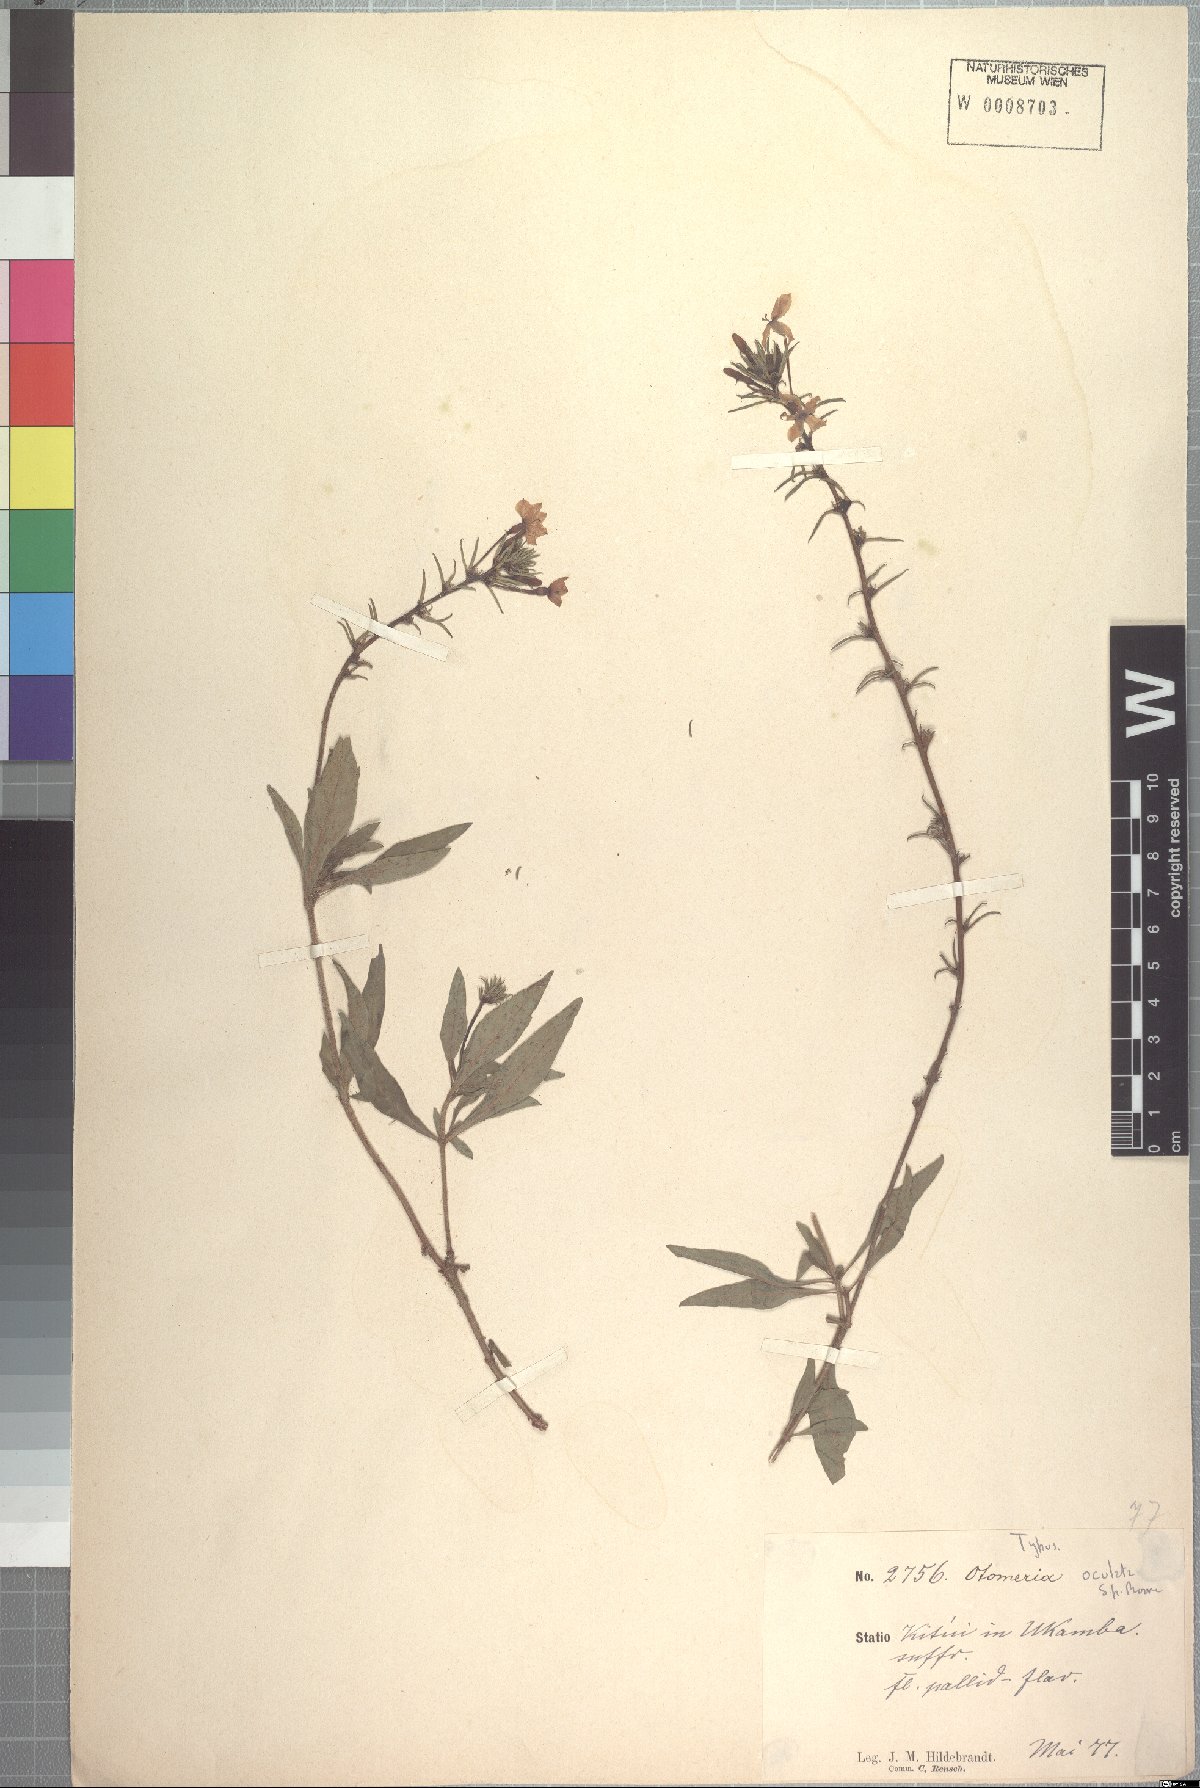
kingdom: Plantae
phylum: Tracheophyta
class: Magnoliopsida
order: Gentianales
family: Rubiaceae
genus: Otomeria
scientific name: Otomeria oculata
